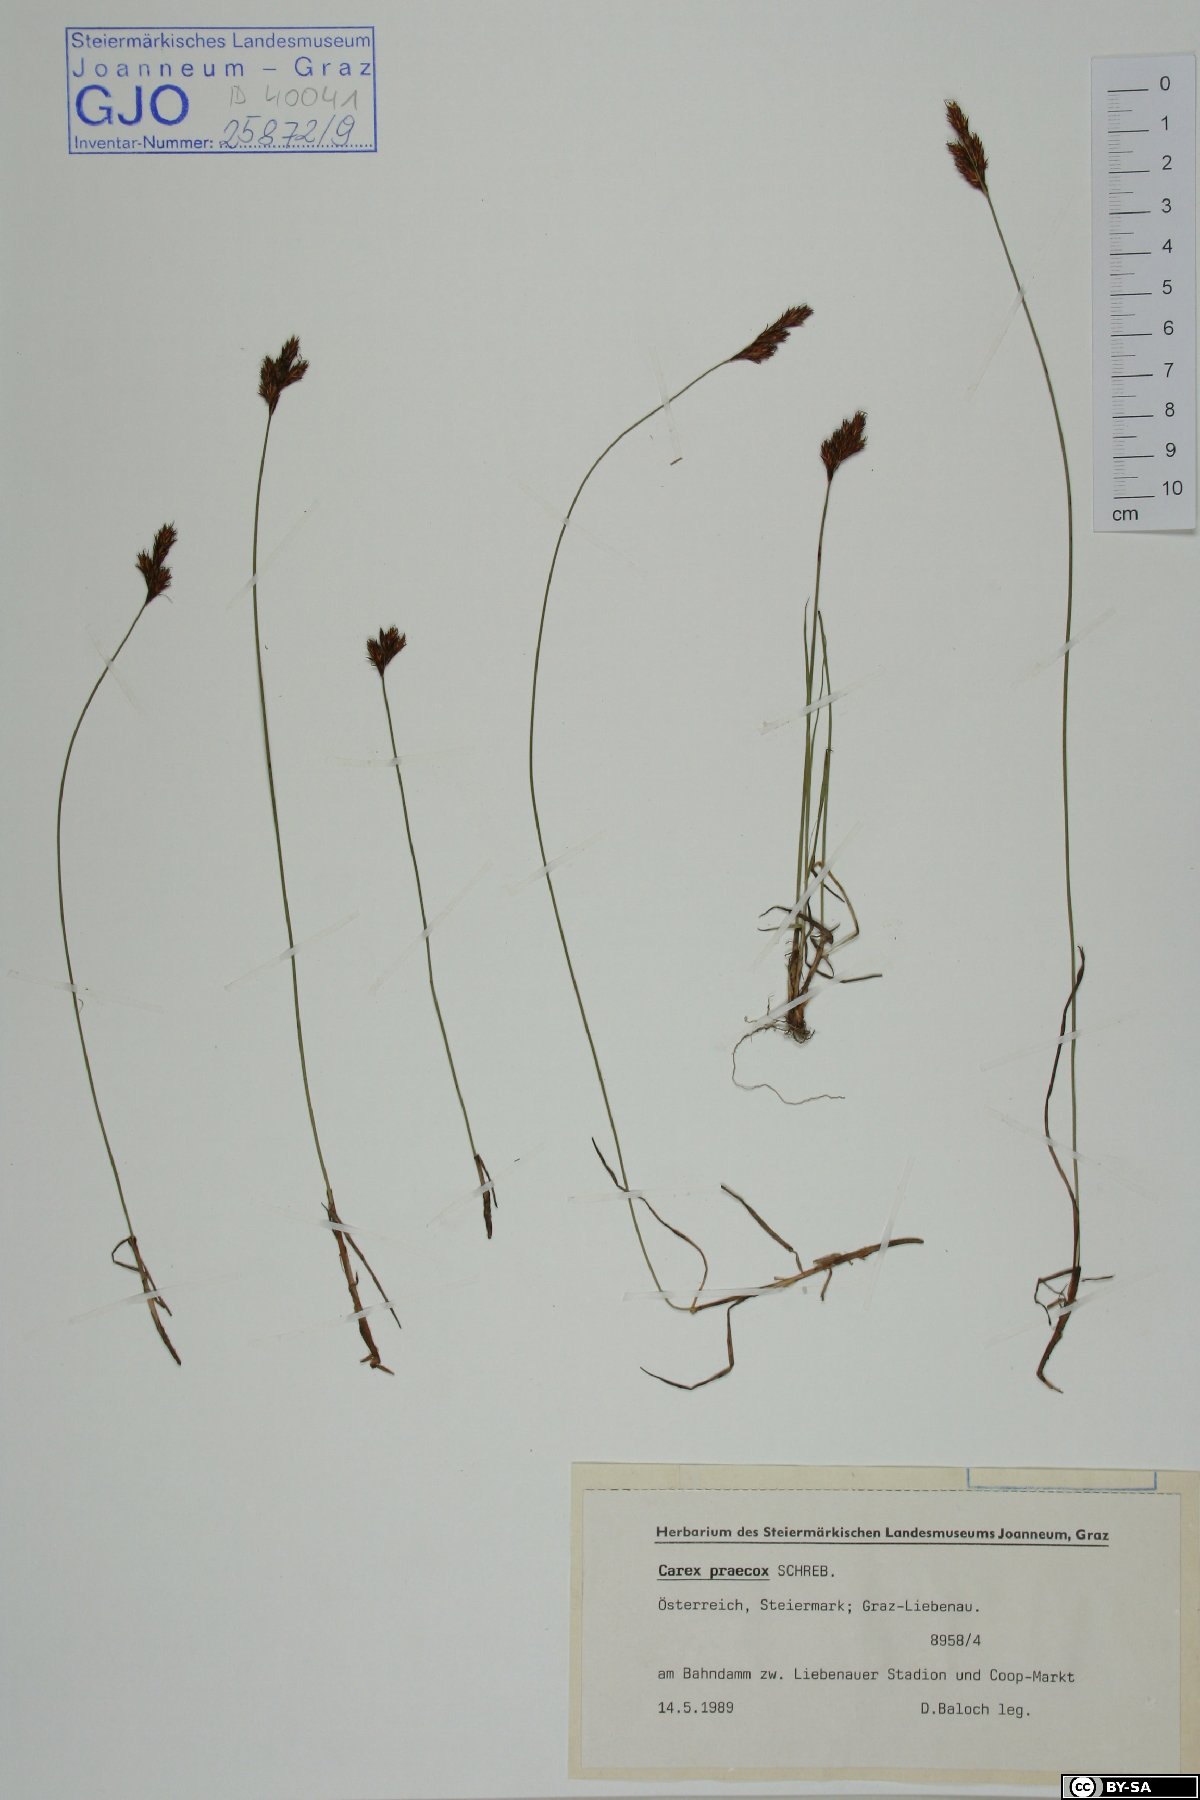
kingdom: Plantae
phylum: Tracheophyta
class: Liliopsida
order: Poales
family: Cyperaceae
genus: Carex
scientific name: Carex praecox
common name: Early sedge
